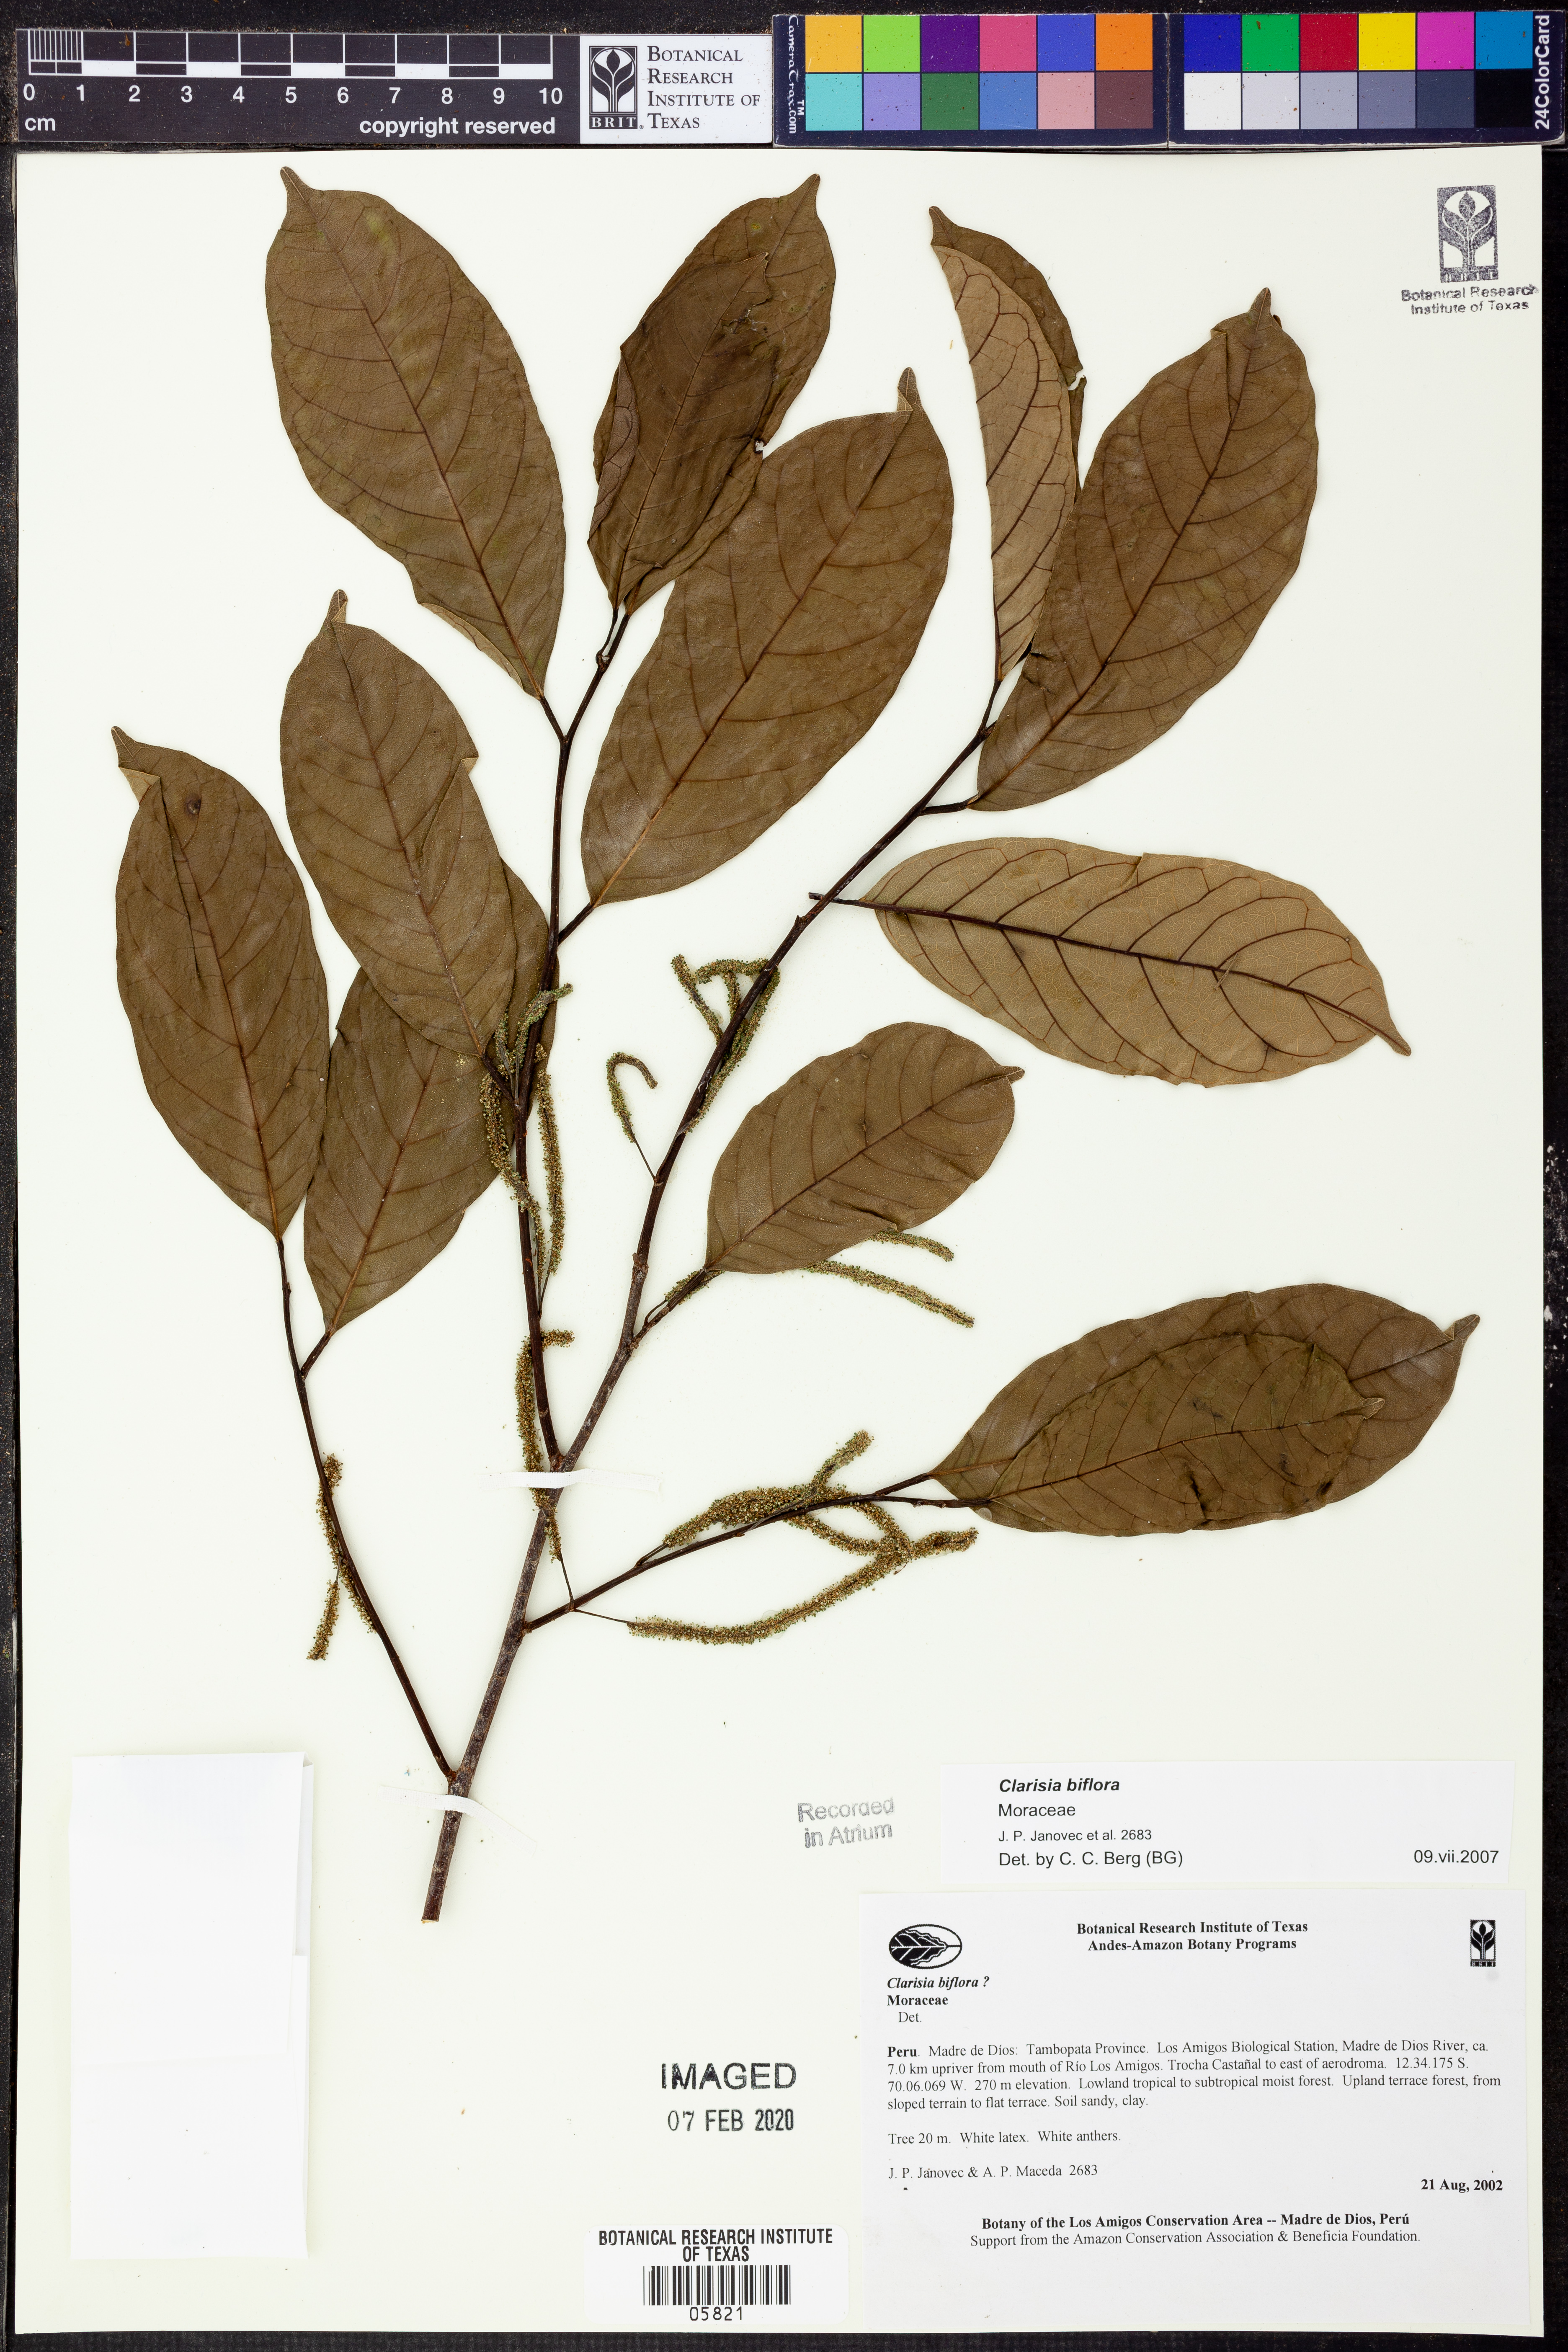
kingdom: Plantae
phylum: Tracheophyta
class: Magnoliopsida
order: Rosales
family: Moraceae
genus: Clarisia
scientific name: Clarisia
